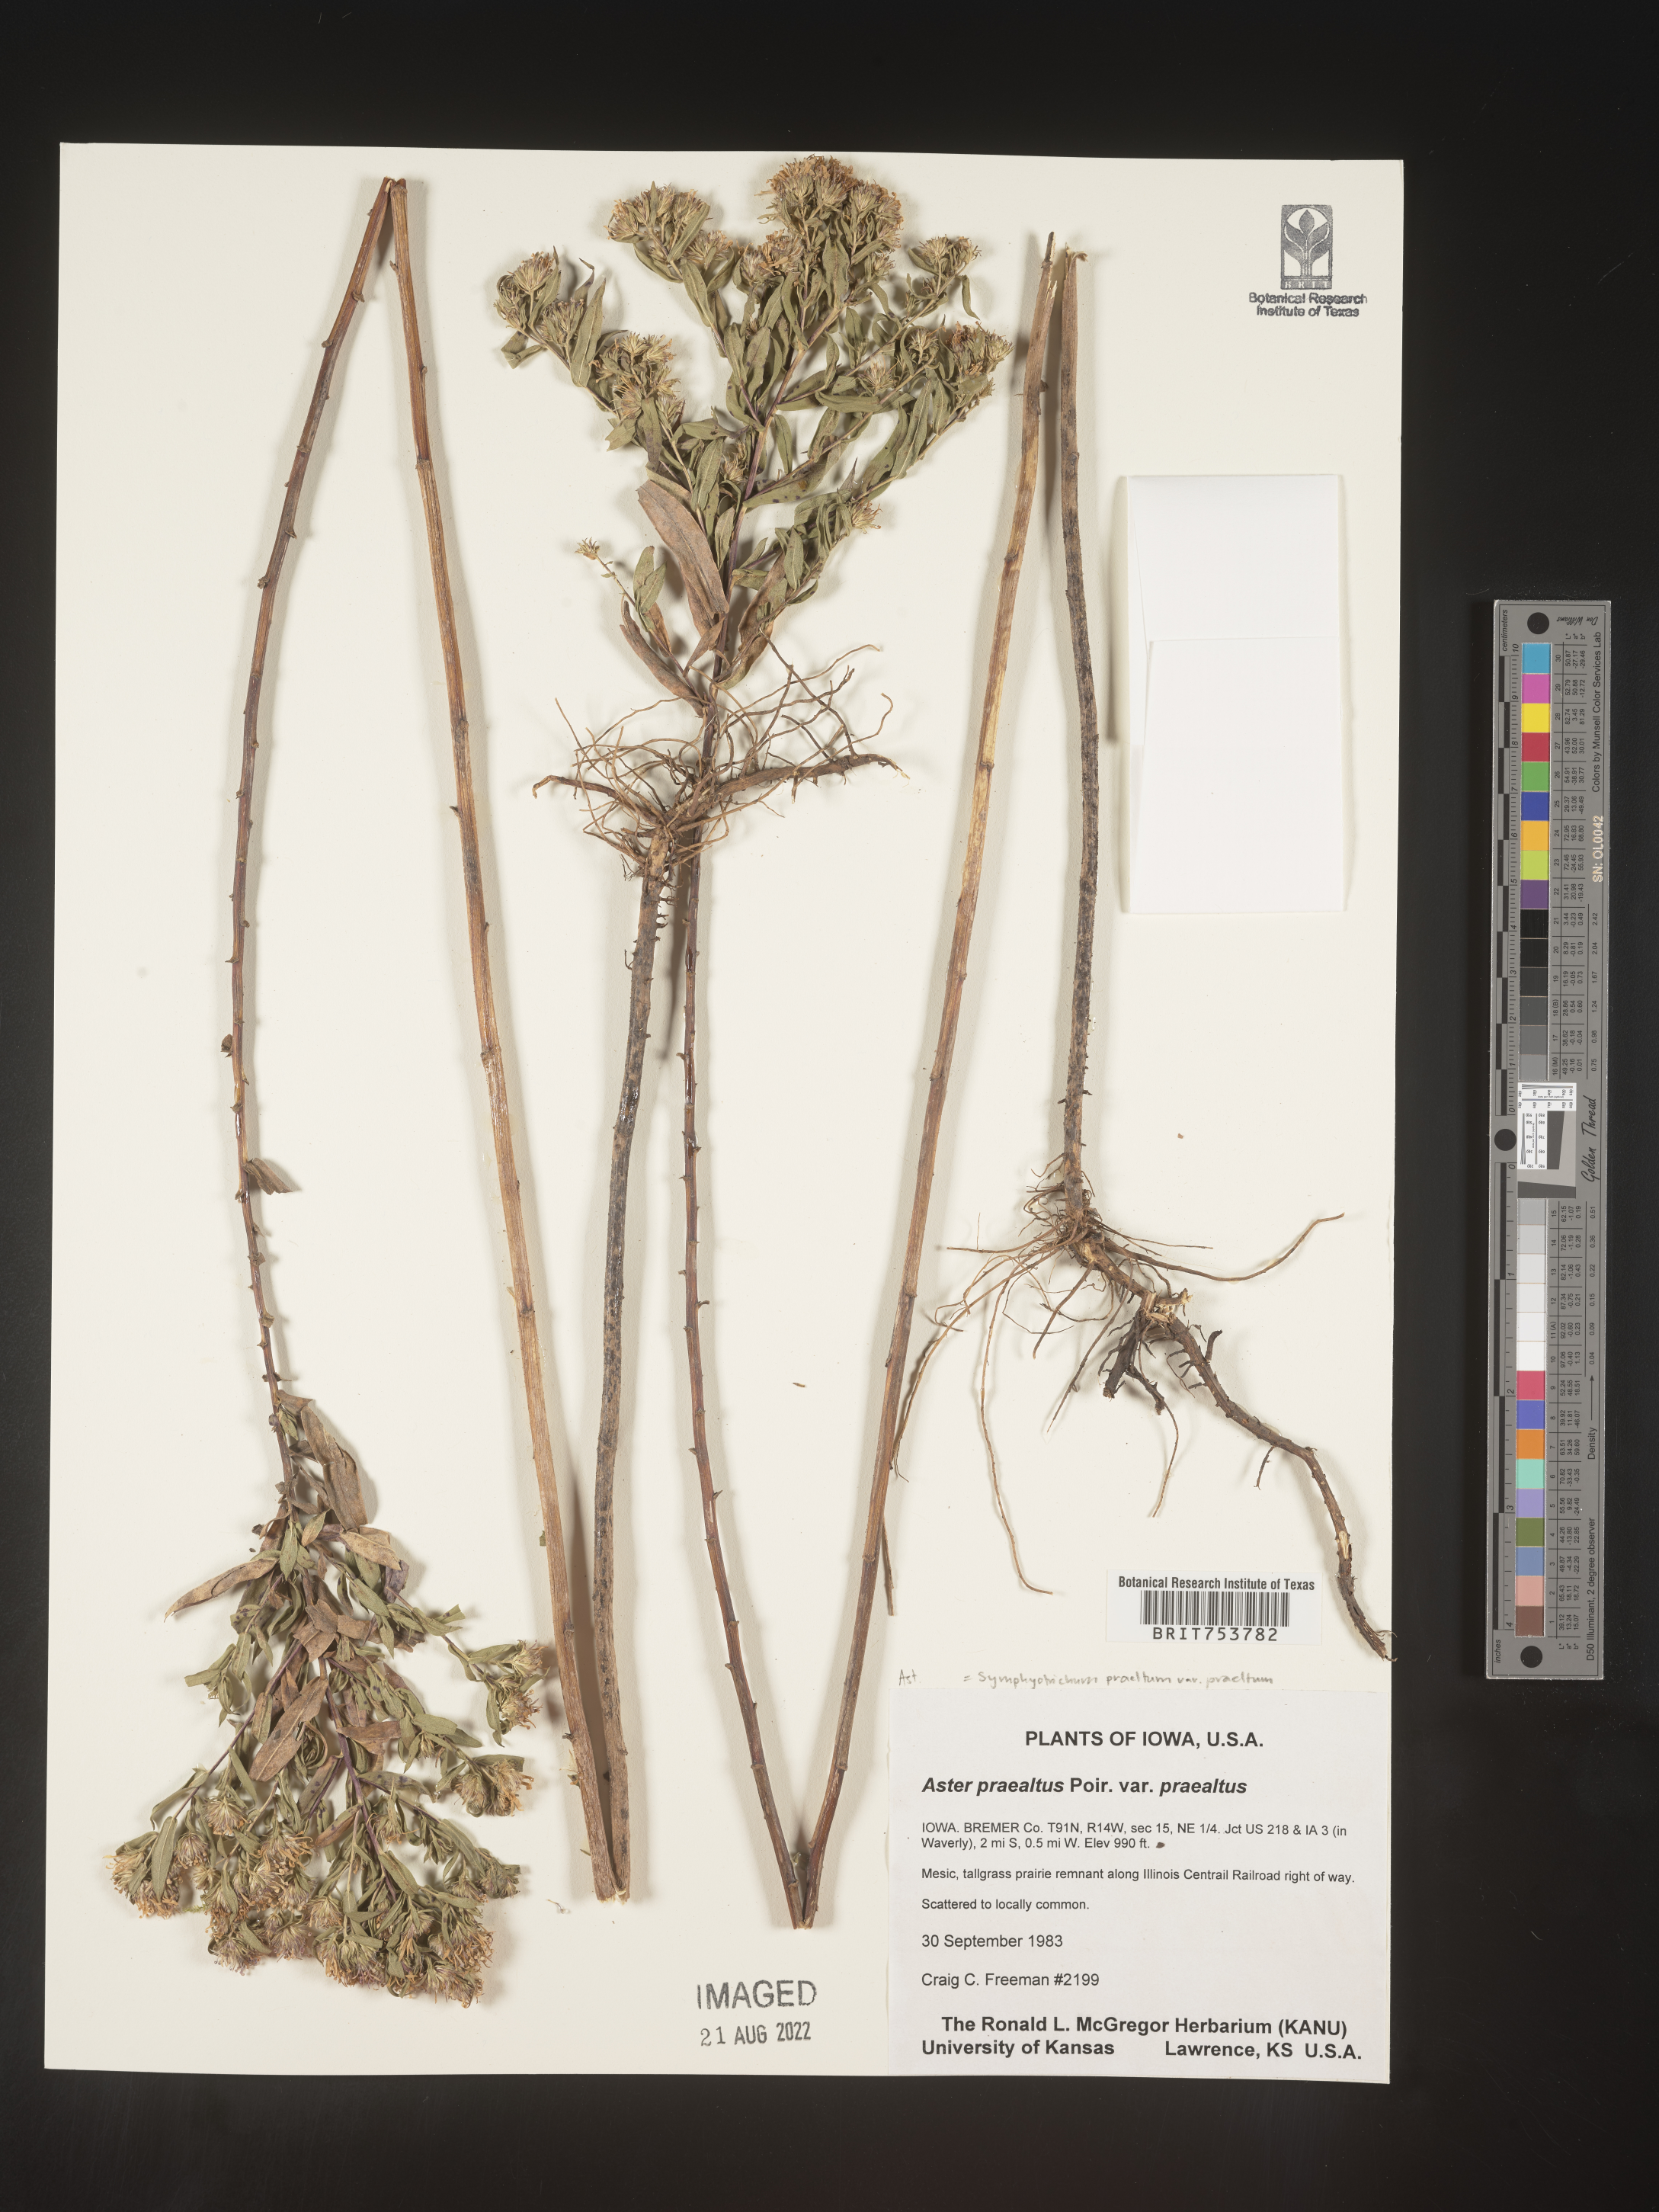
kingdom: Plantae
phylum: Tracheophyta
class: Magnoliopsida
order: Asterales
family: Asteraceae
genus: Symphyotrichum
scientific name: Symphyotrichum praealtum
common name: Willow aster
